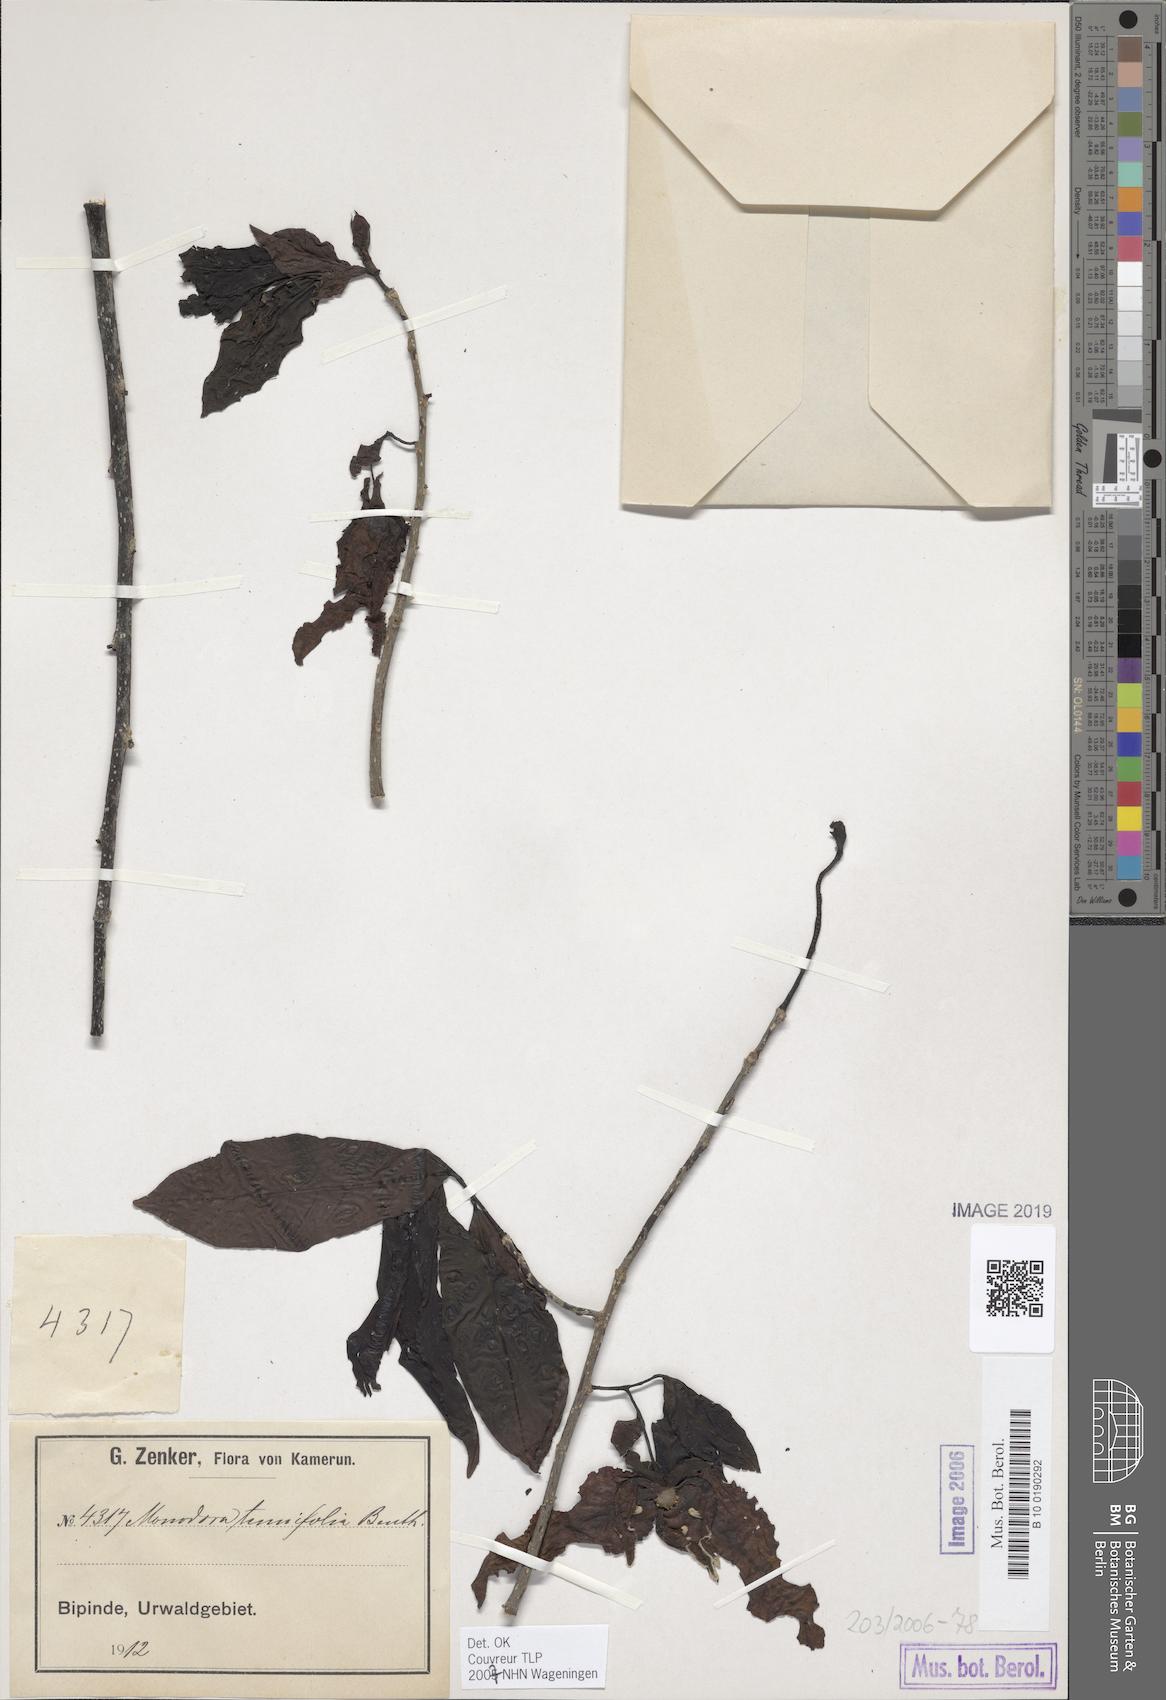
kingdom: Plantae
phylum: Tracheophyta
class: Magnoliopsida
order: Magnoliales
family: Annonaceae
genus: Monodora
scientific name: Monodora tenuifolia
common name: Orchidtree
